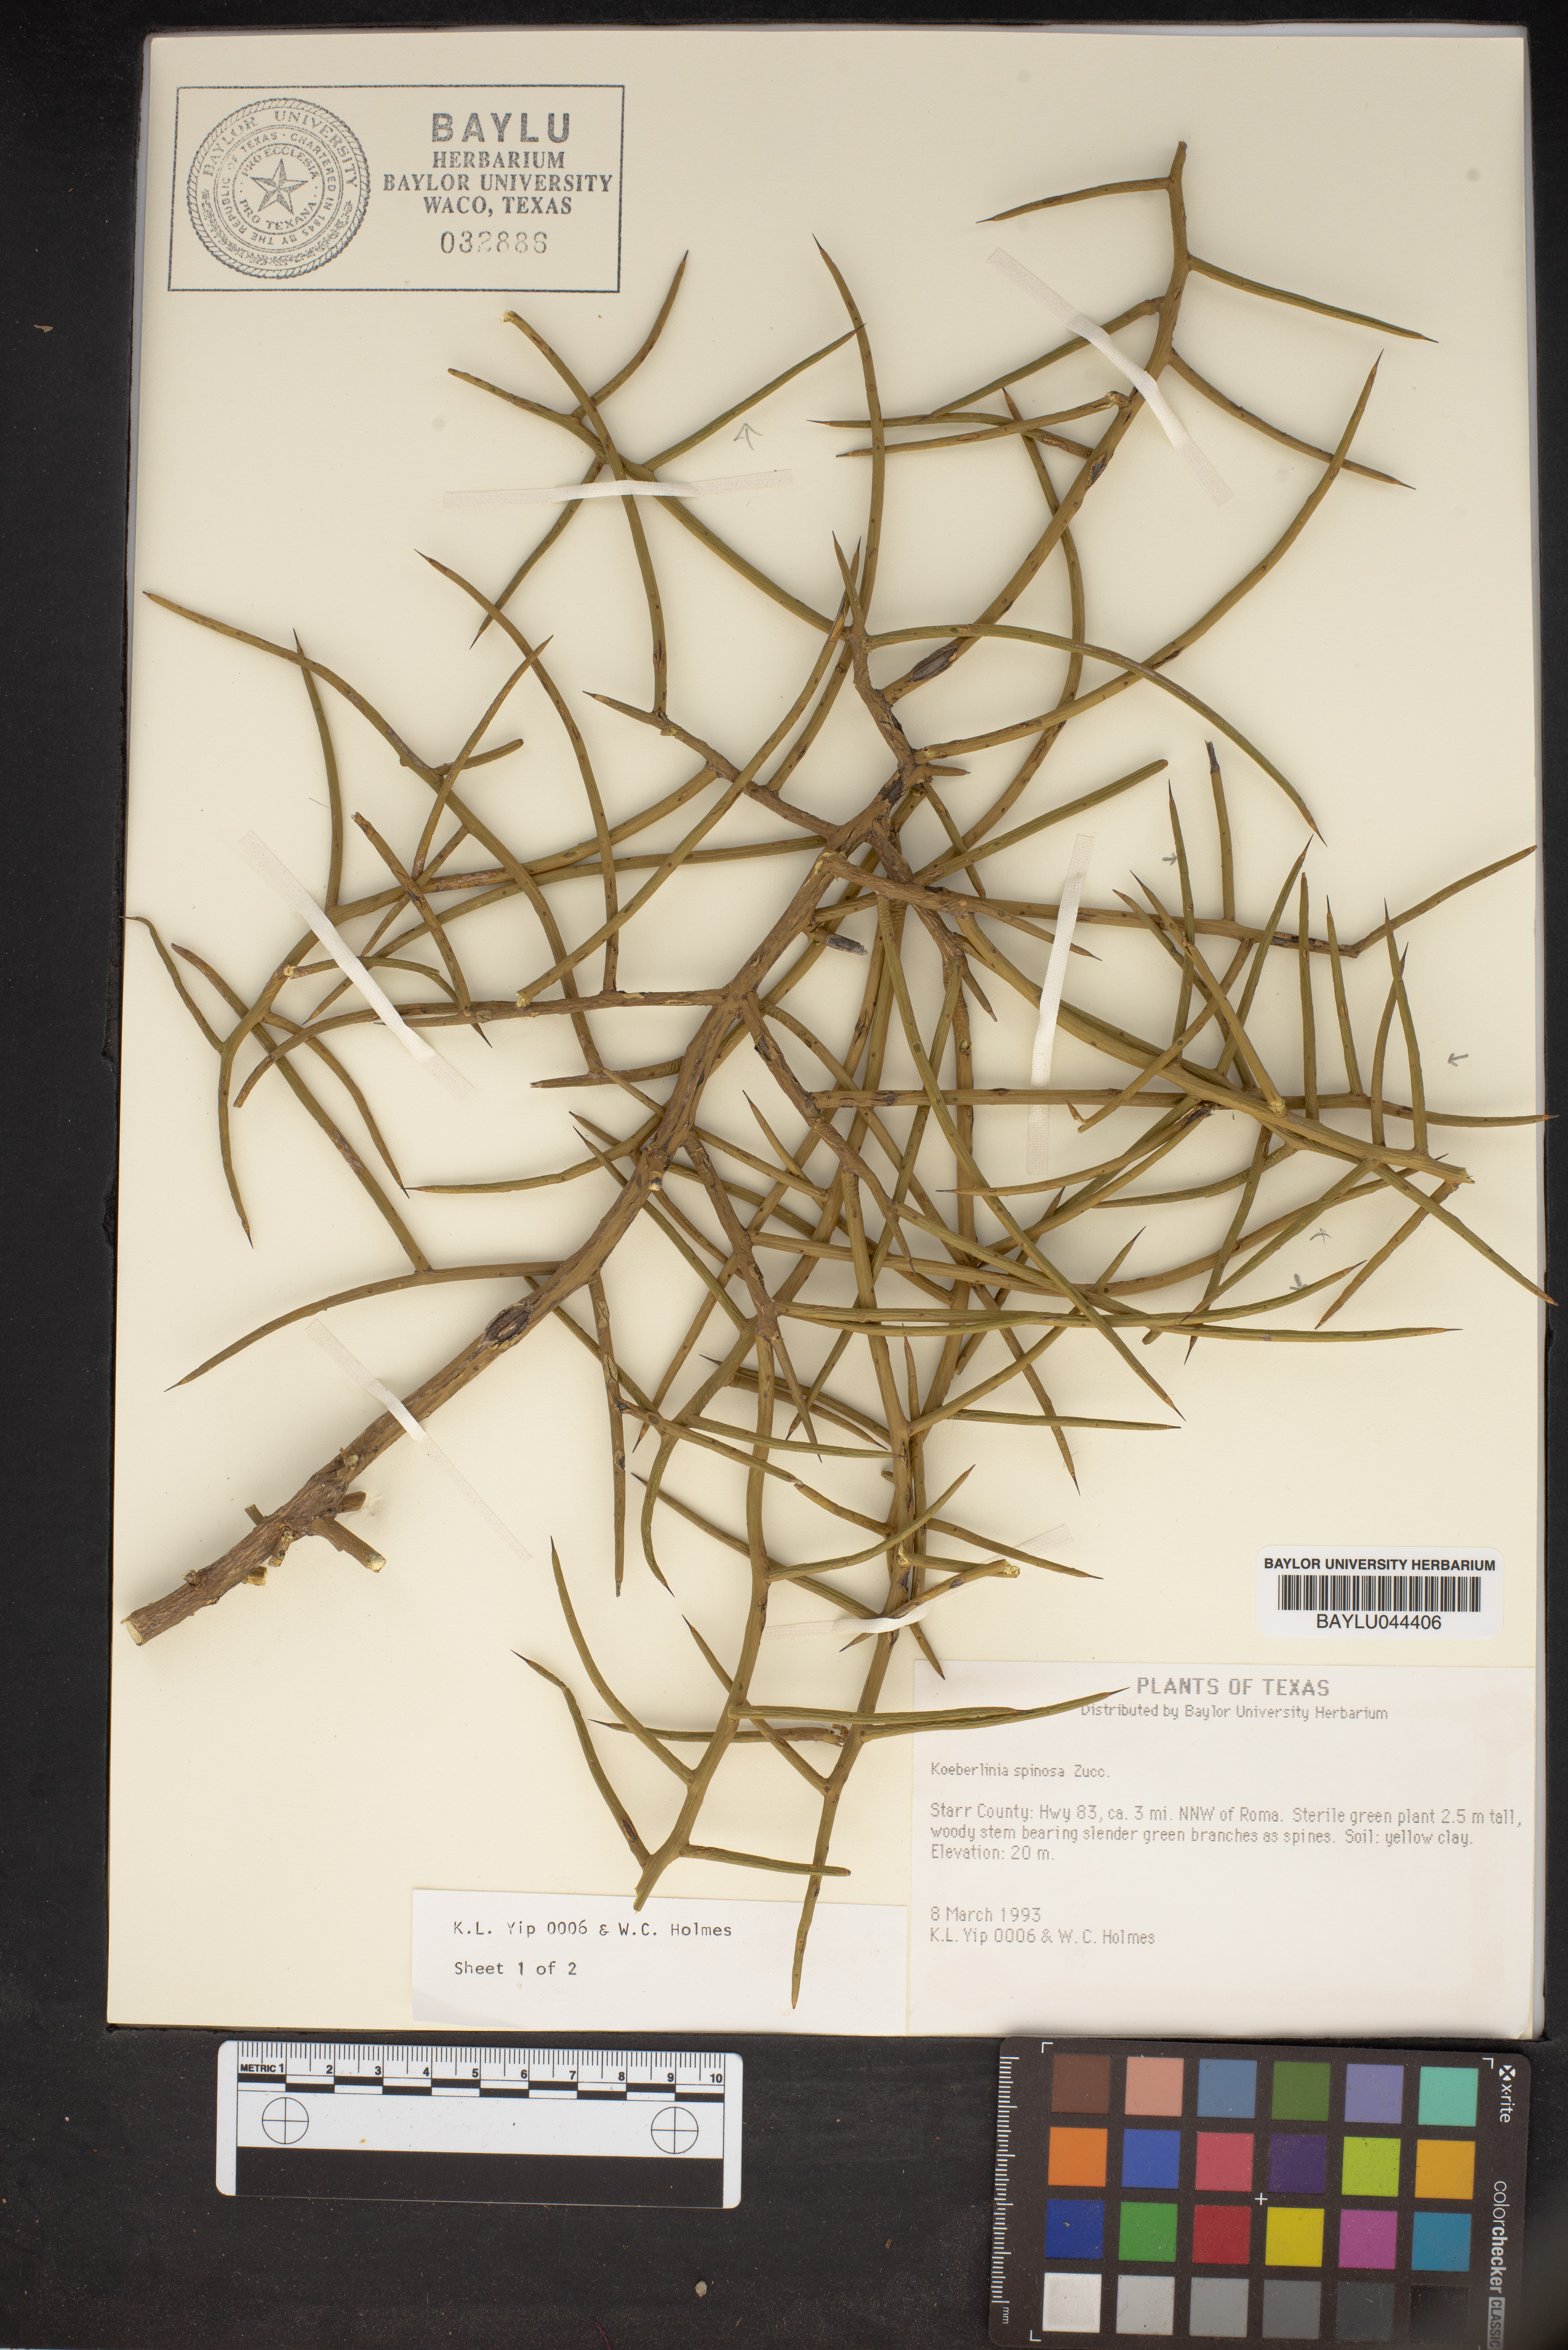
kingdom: Plantae
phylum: Tracheophyta
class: Magnoliopsida
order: Brassicales
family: Koeberliniaceae
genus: Koeberlinia
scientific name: Koeberlinia spinosa
